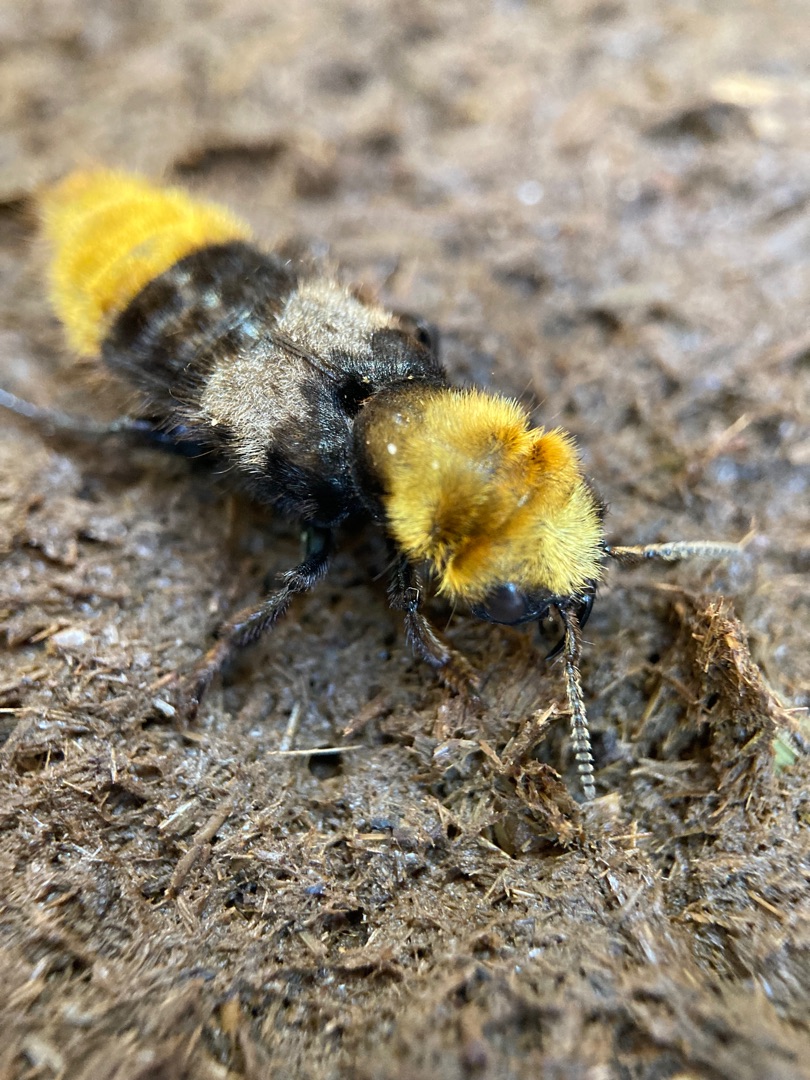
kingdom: Animalia
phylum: Arthropoda
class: Insecta
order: Coleoptera
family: Staphylinidae
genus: Emus
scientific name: Emus hirtus
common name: Humlerovbille
